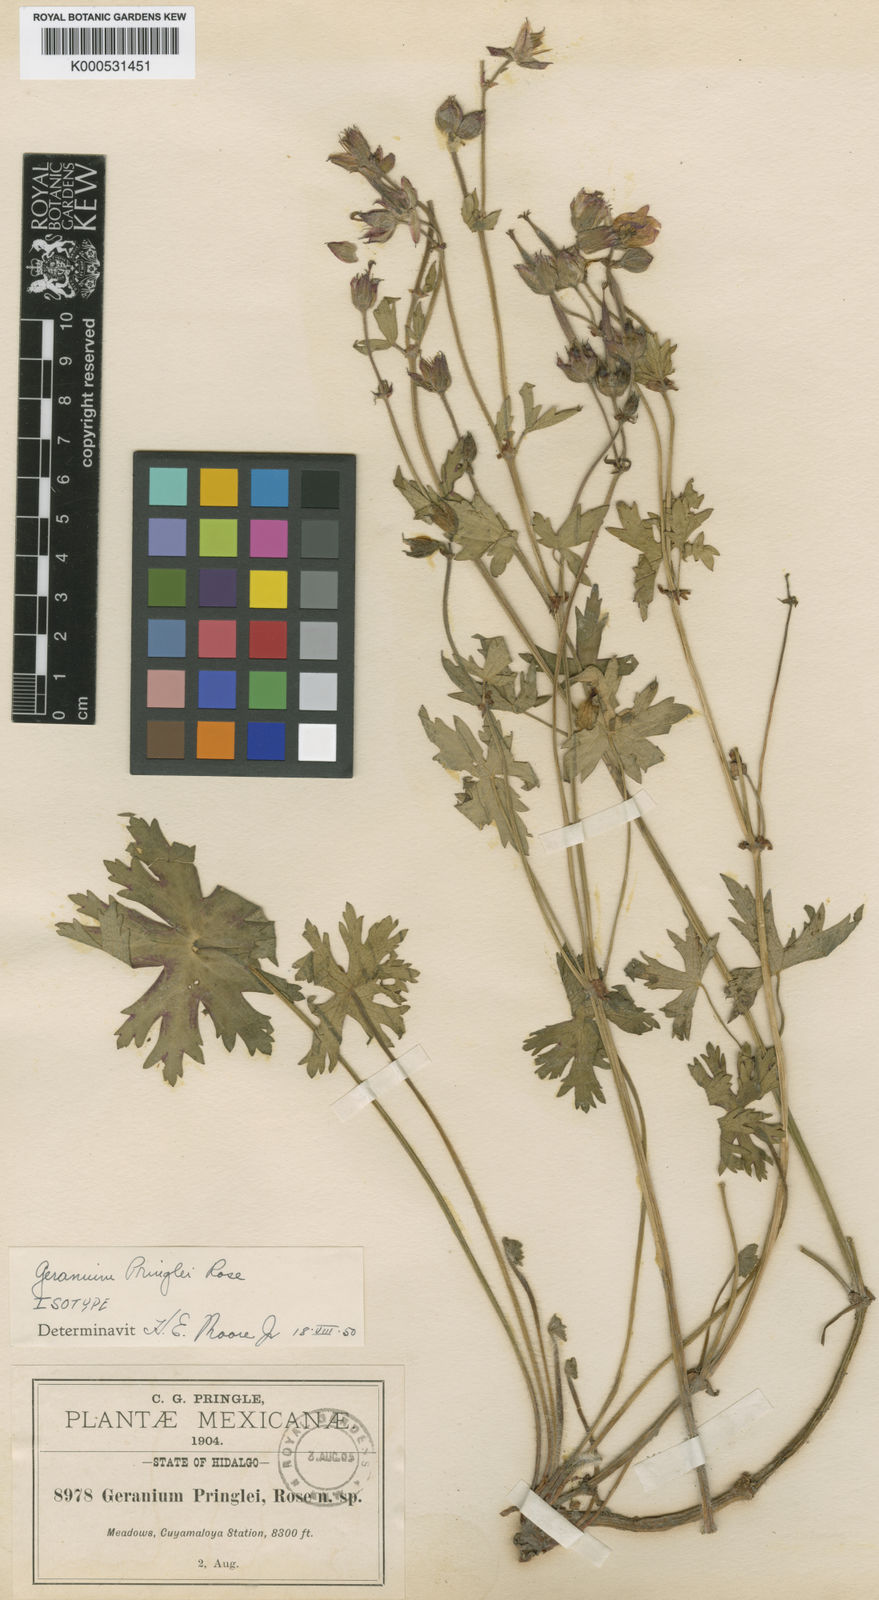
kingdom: Plantae
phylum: Tracheophyta
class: Magnoliopsida
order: Geraniales
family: Geraniaceae
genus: Geranium
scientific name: Geranium pringlei
